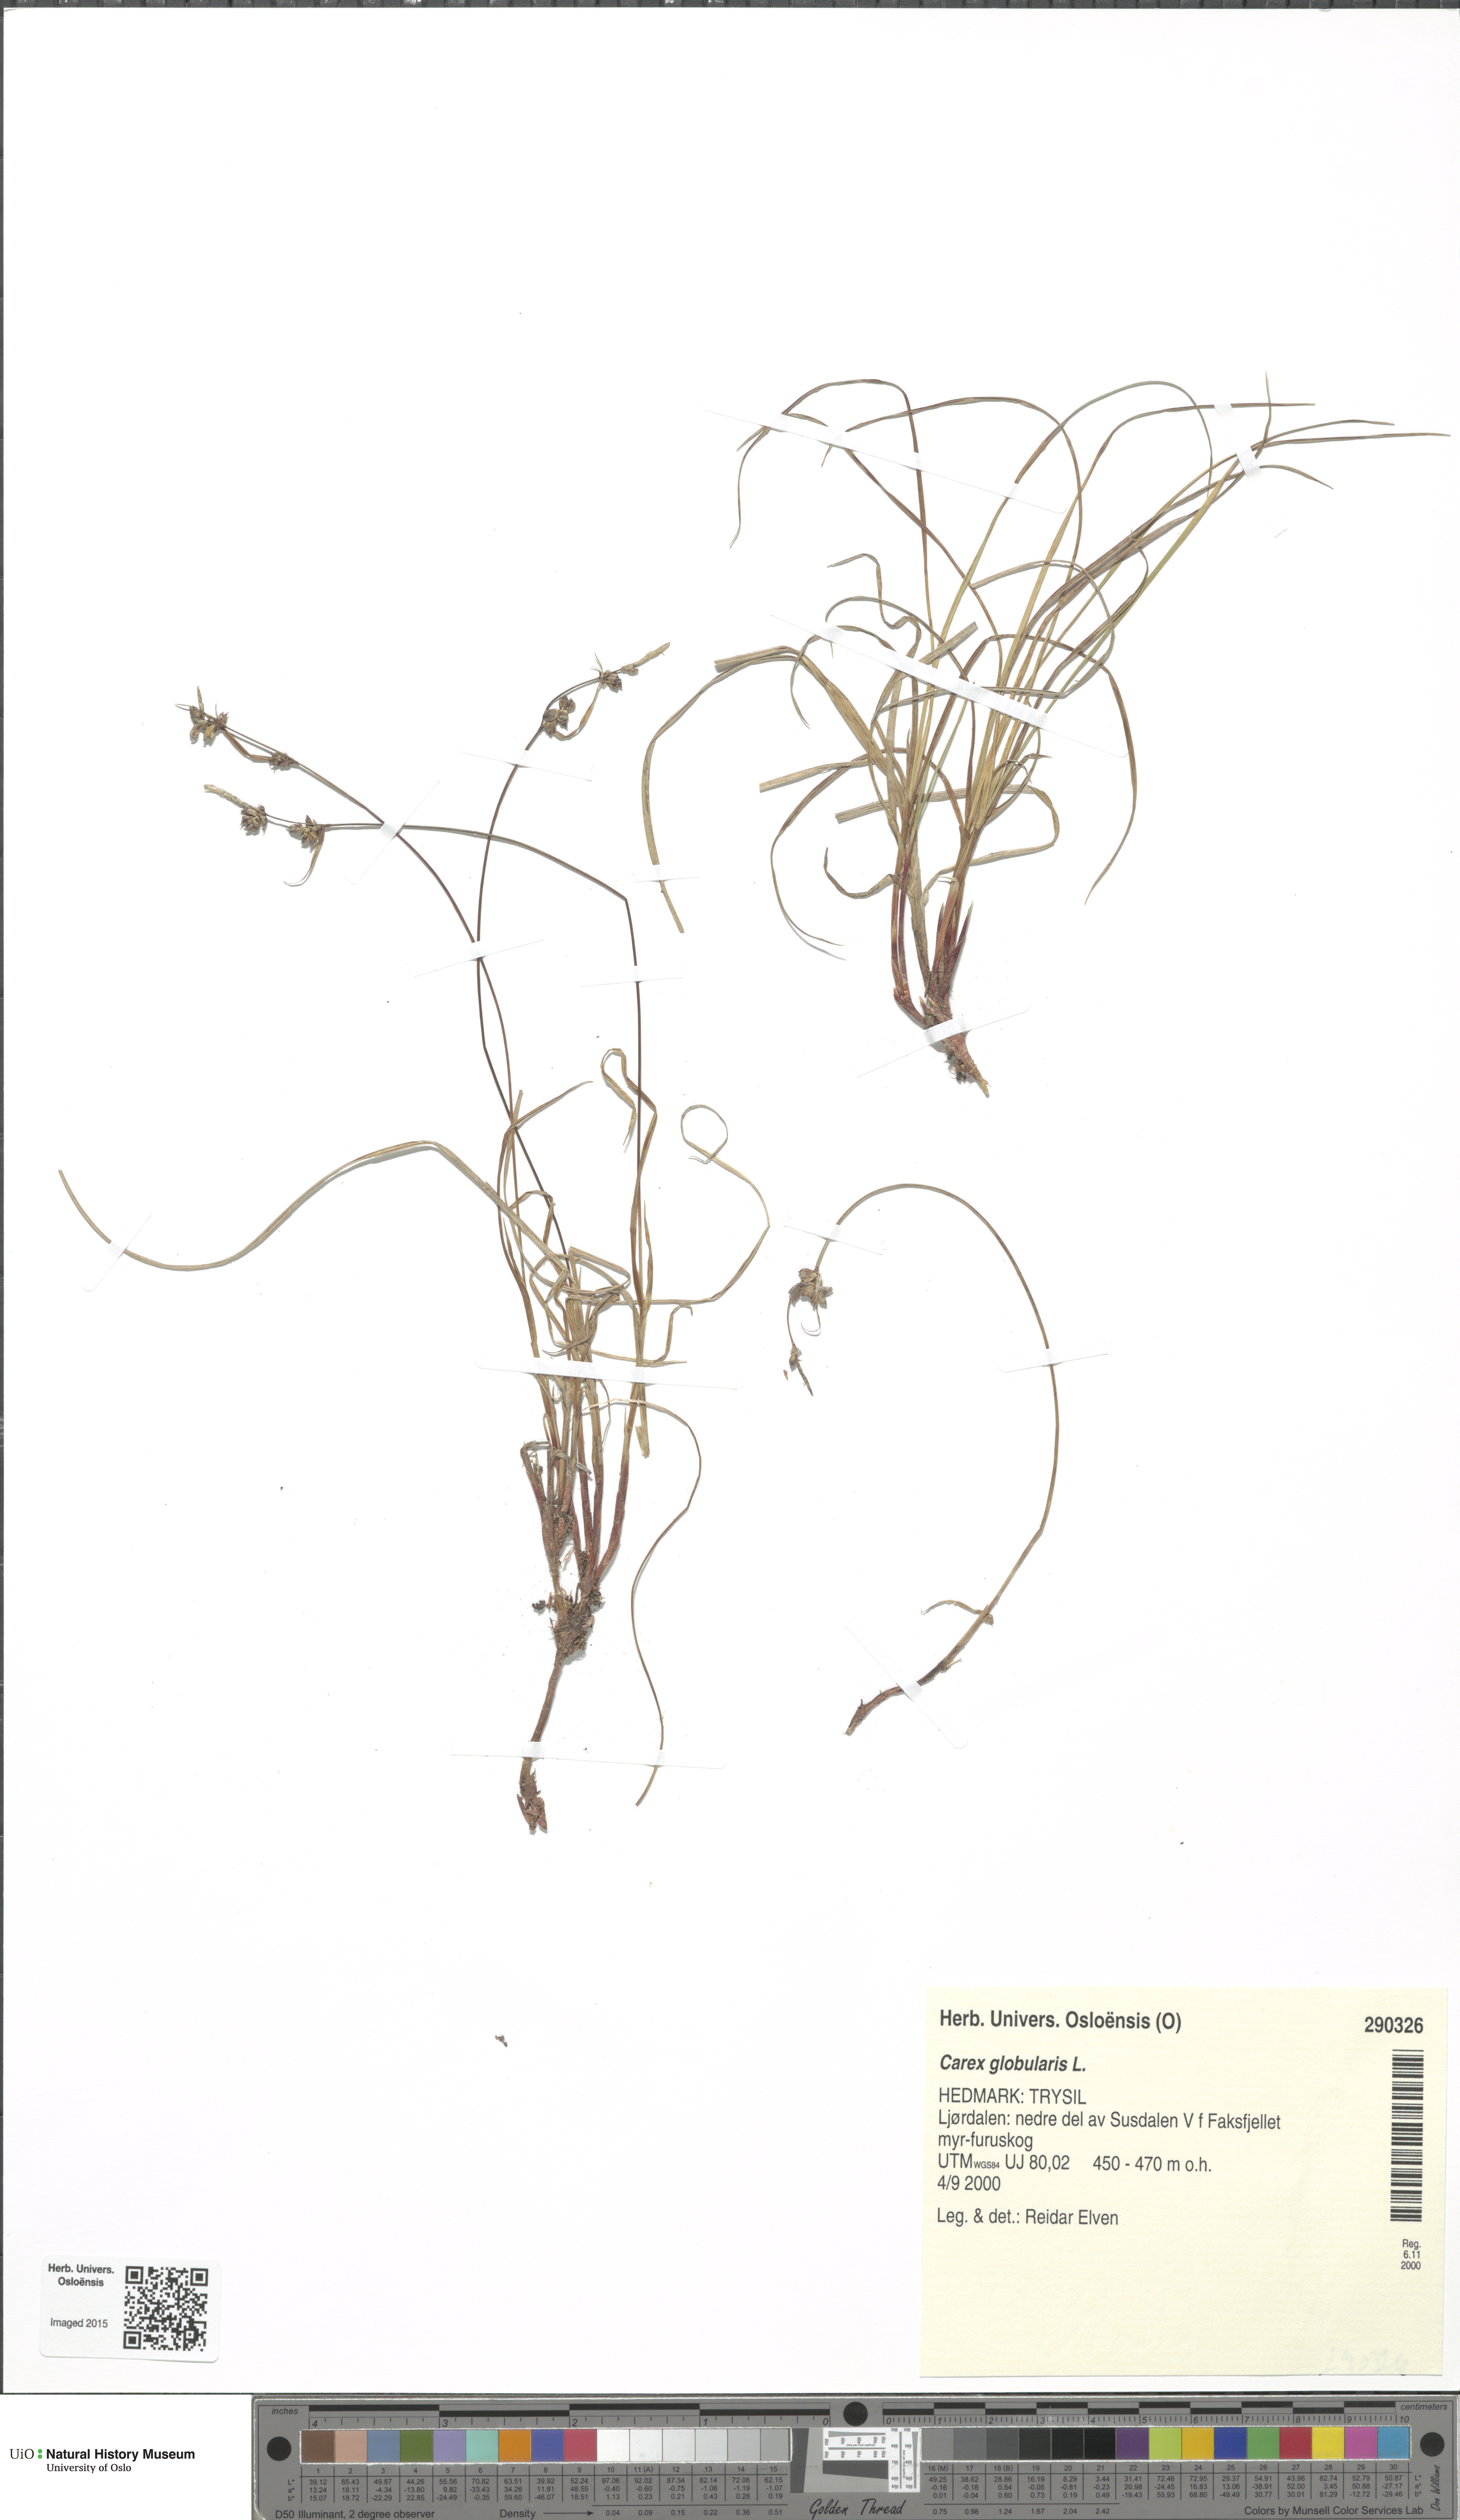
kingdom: Plantae
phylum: Tracheophyta
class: Liliopsida
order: Poales
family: Cyperaceae
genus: Carex
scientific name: Carex globularis
